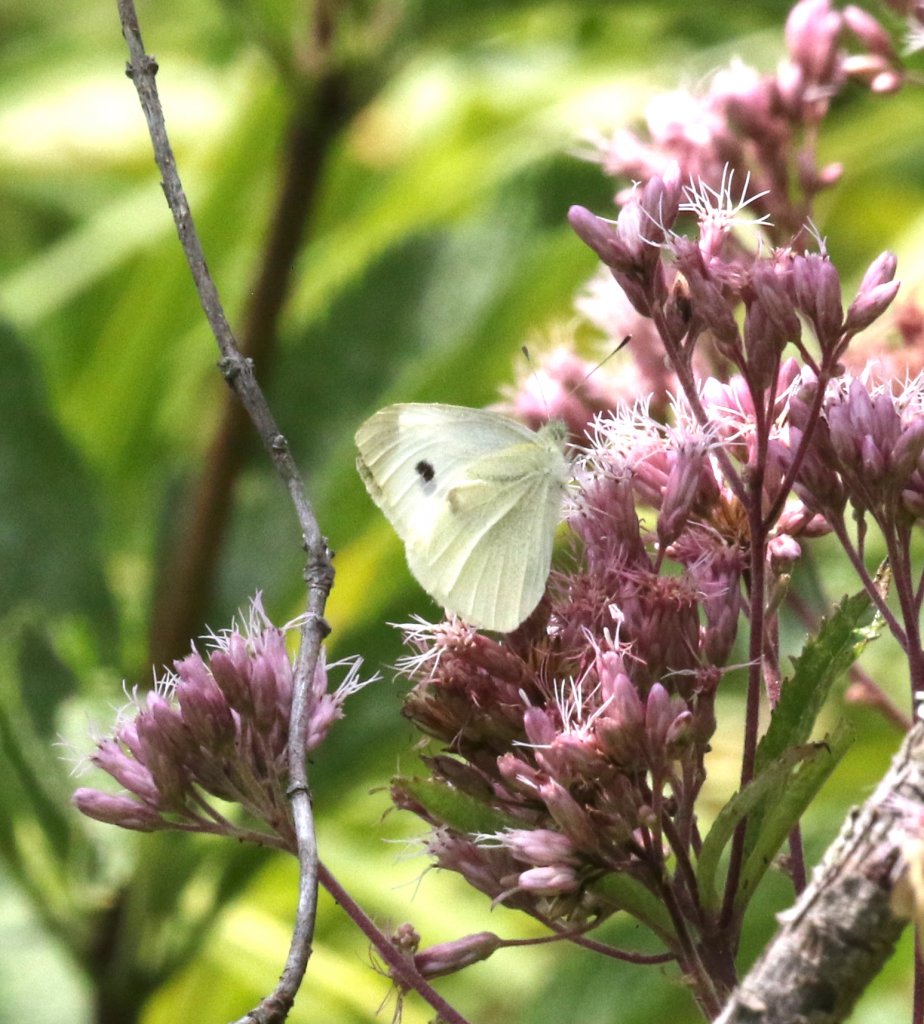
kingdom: Animalia
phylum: Arthropoda
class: Insecta
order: Lepidoptera
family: Pieridae
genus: Pieris
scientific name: Pieris rapae
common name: Cabbage White
